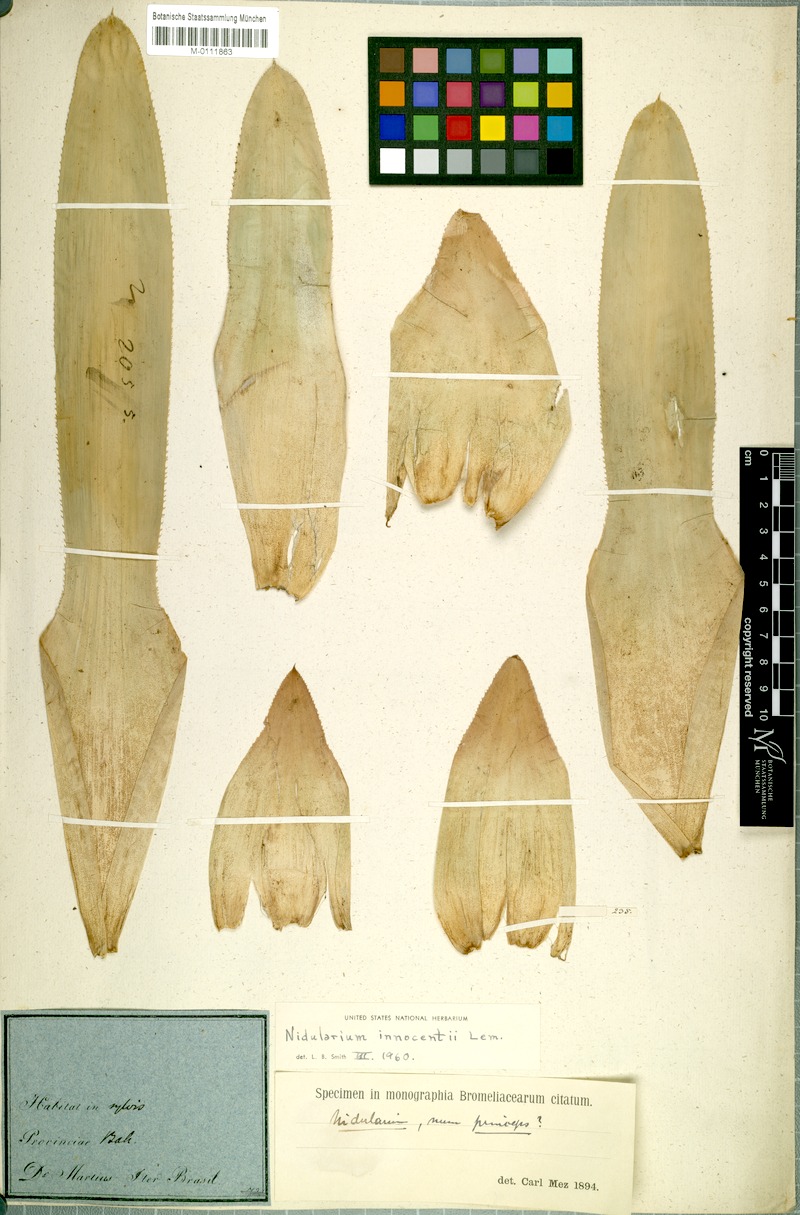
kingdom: Plantae
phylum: Tracheophyta
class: Liliopsida
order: Poales
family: Bromeliaceae
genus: Nidularium
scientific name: Nidularium innocentii
